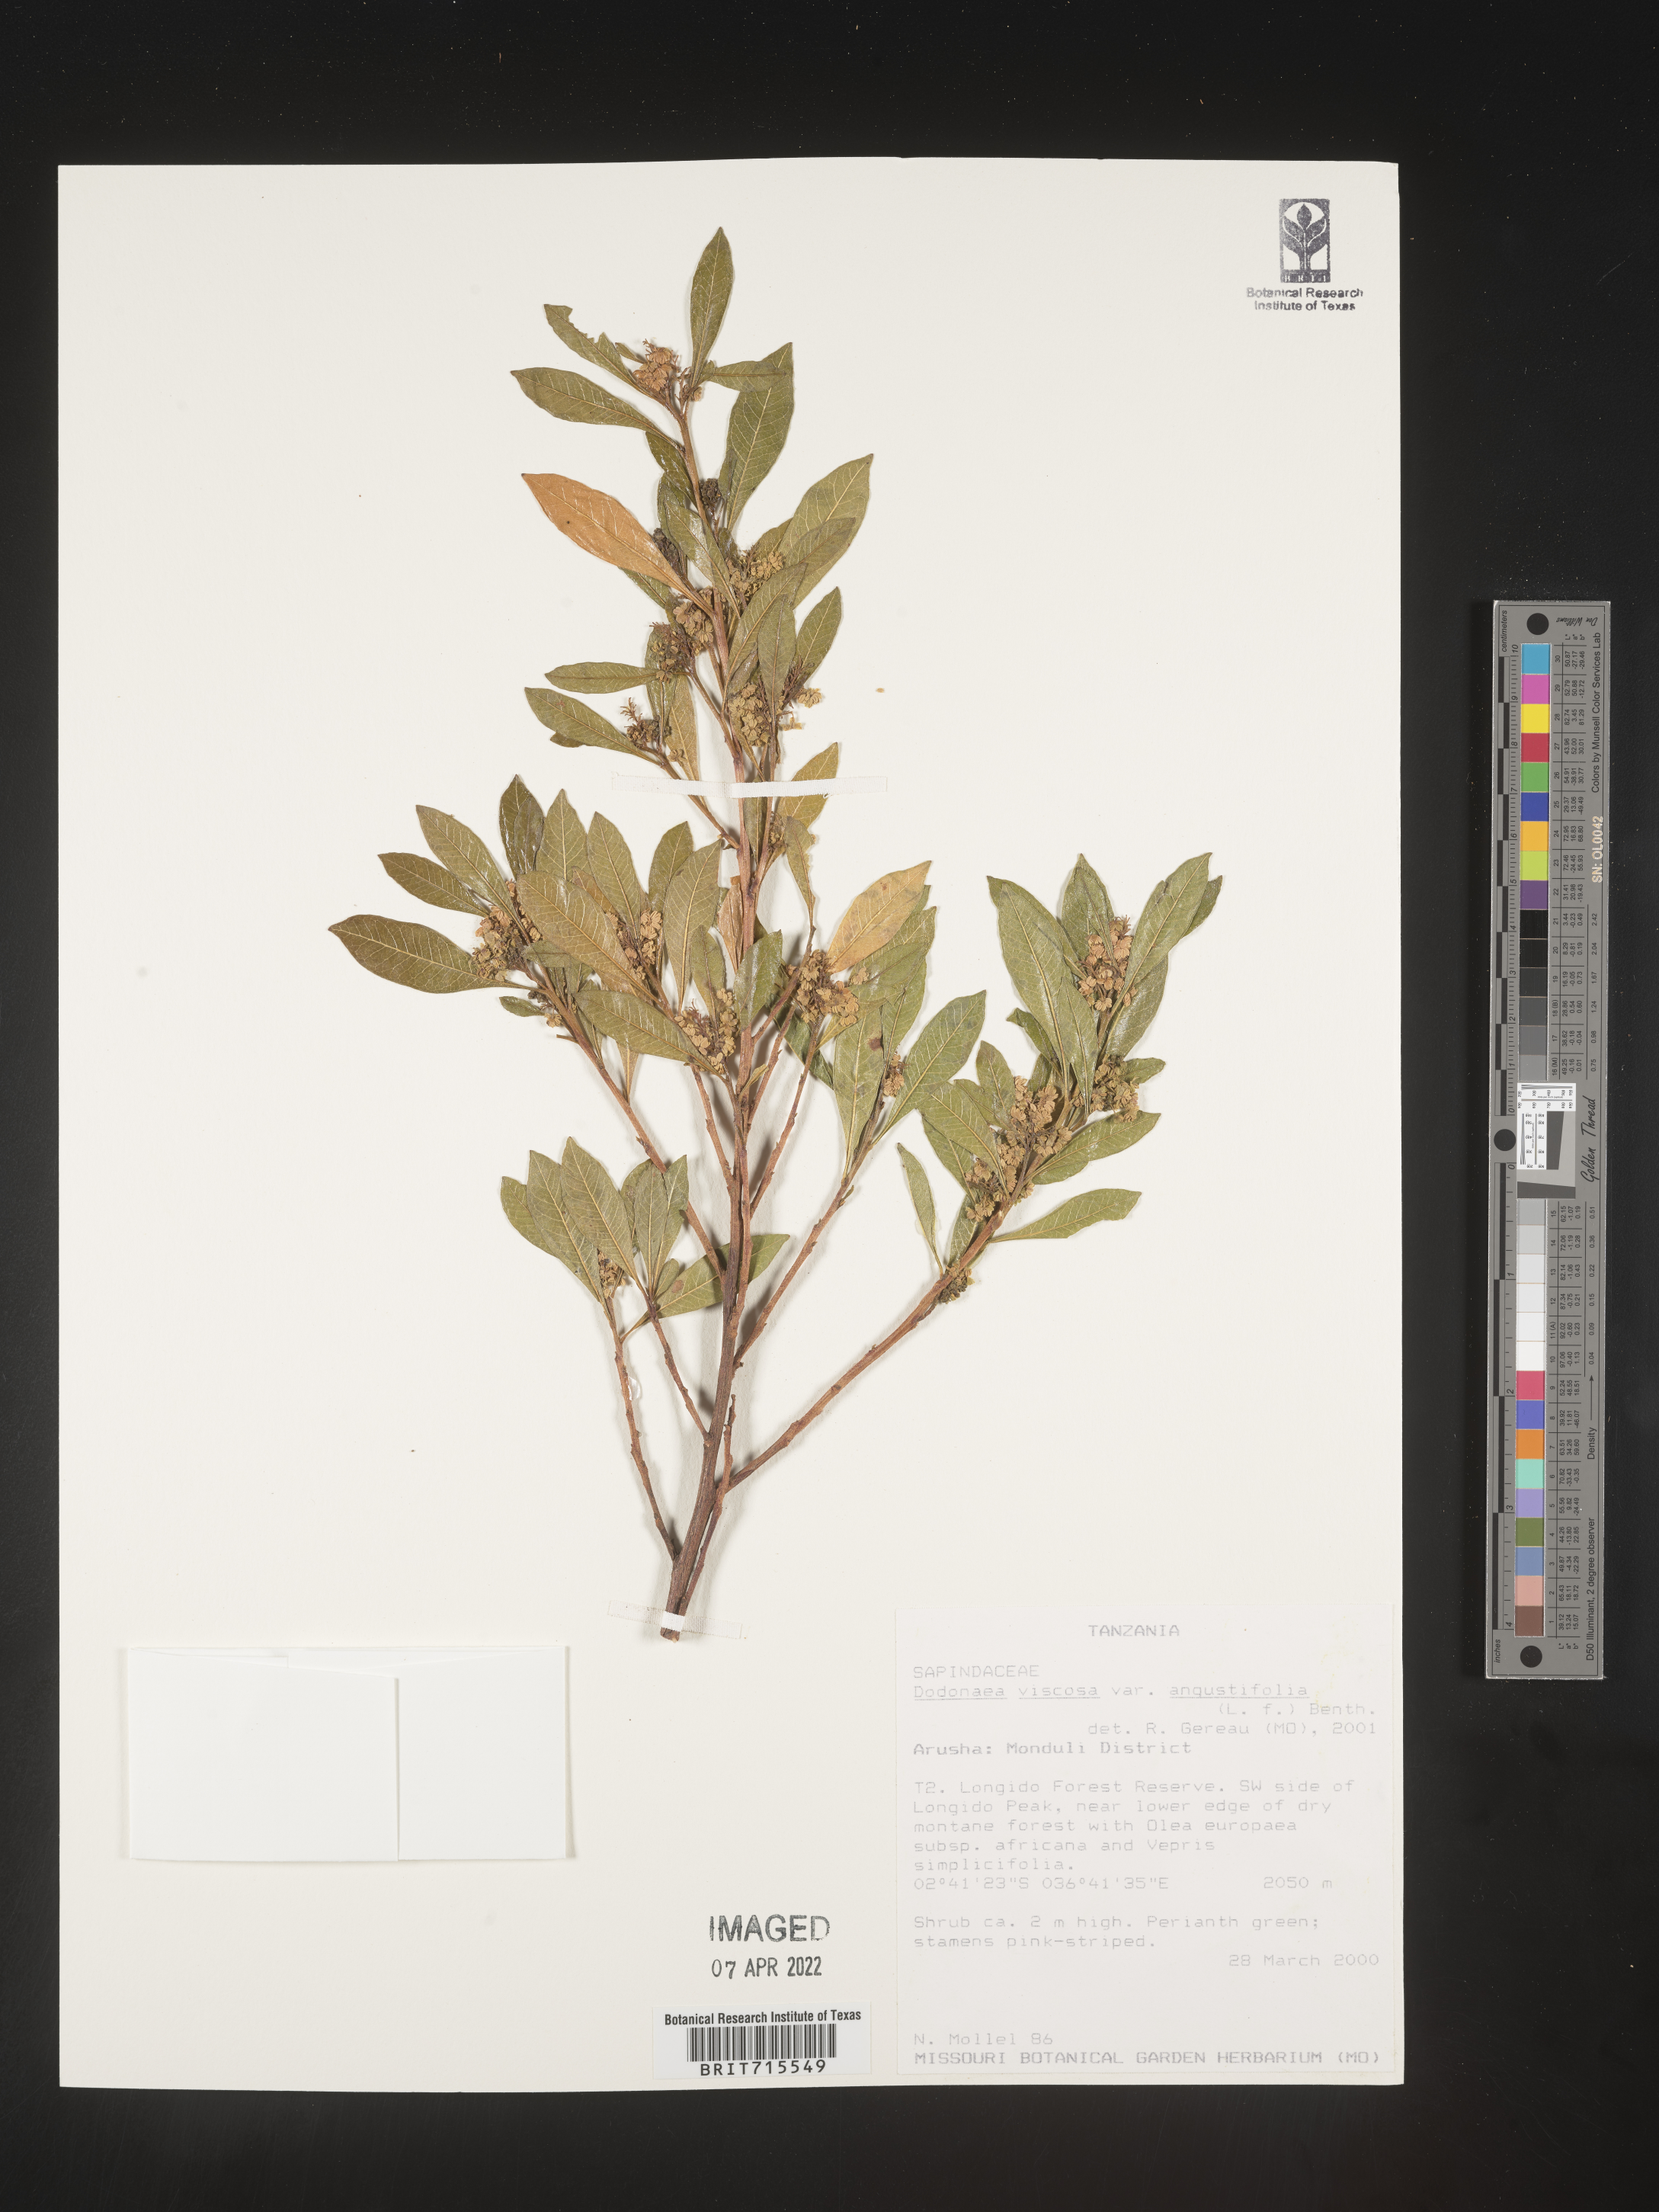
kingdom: Plantae
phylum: Tracheophyta
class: Magnoliopsida
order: Sapindales
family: Sapindaceae
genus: Dodonaea
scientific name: Dodonaea viscosa
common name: Hopbush
